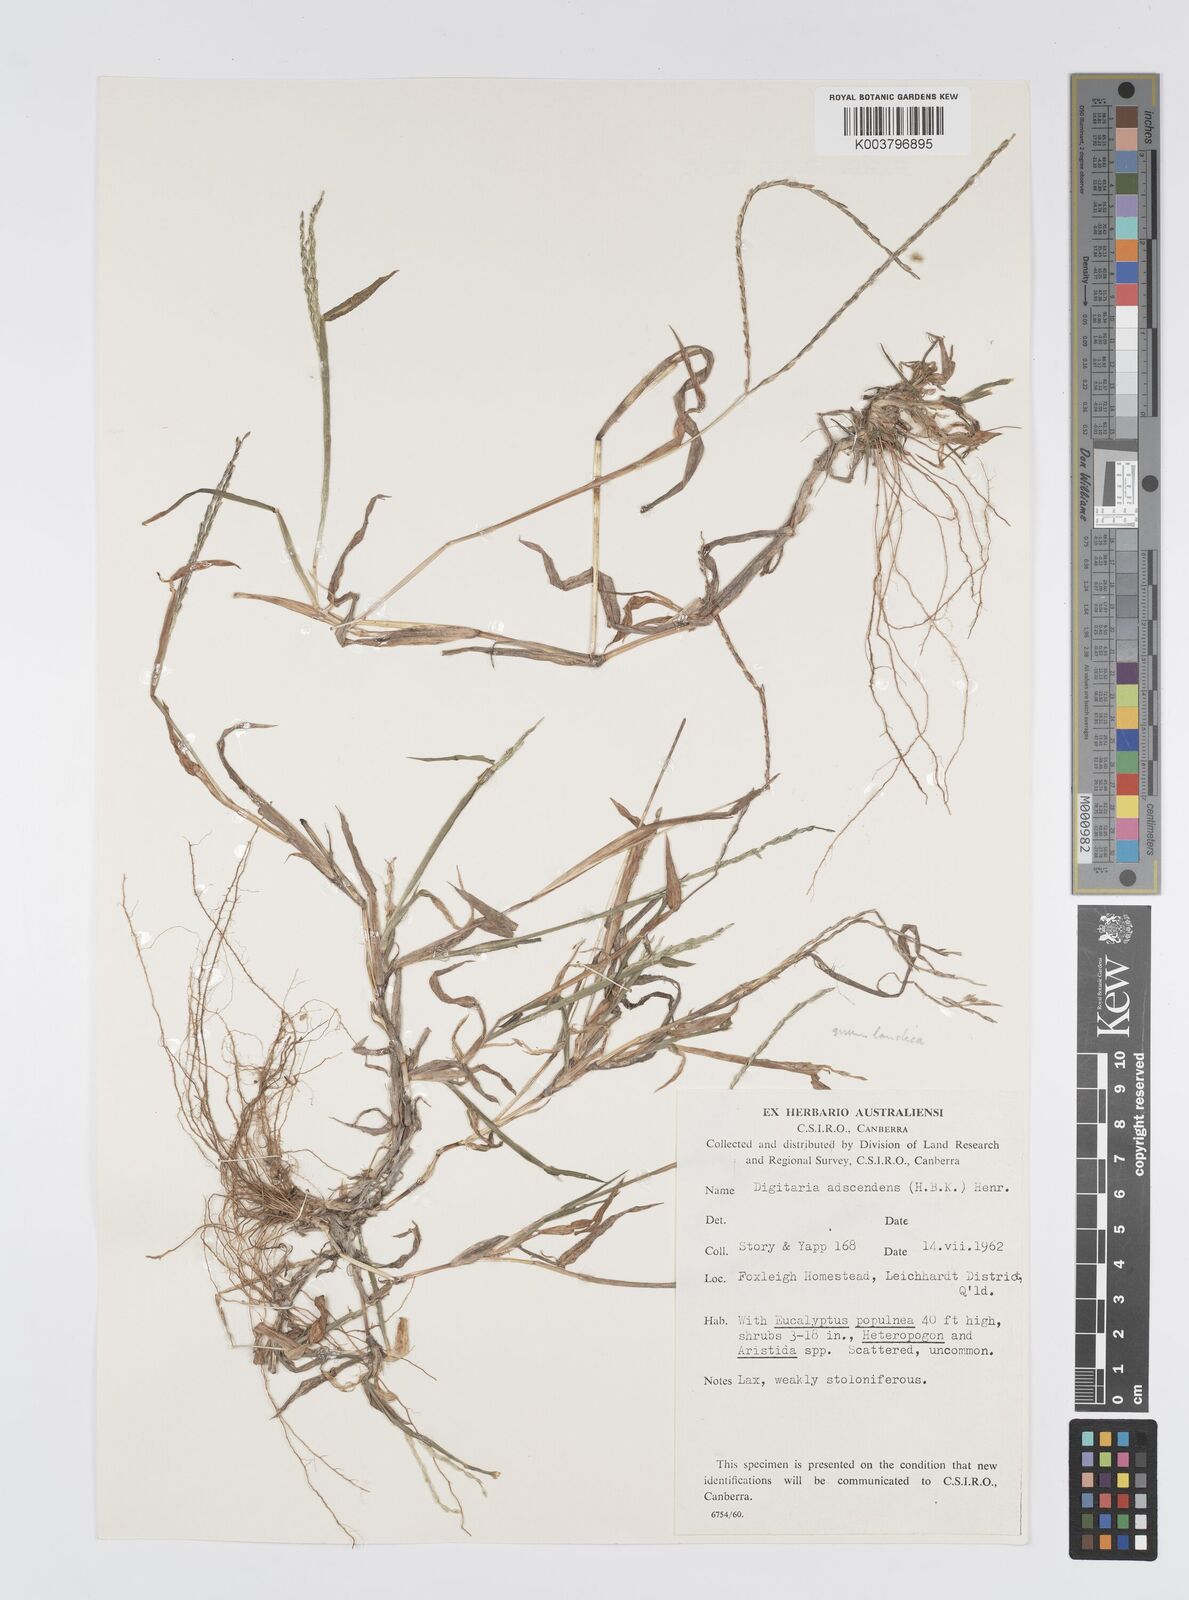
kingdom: Plantae
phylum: Tracheophyta
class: Liliopsida
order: Poales
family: Poaceae
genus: Digitaria
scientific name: Digitaria bicornis
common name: Asian crabgrass
